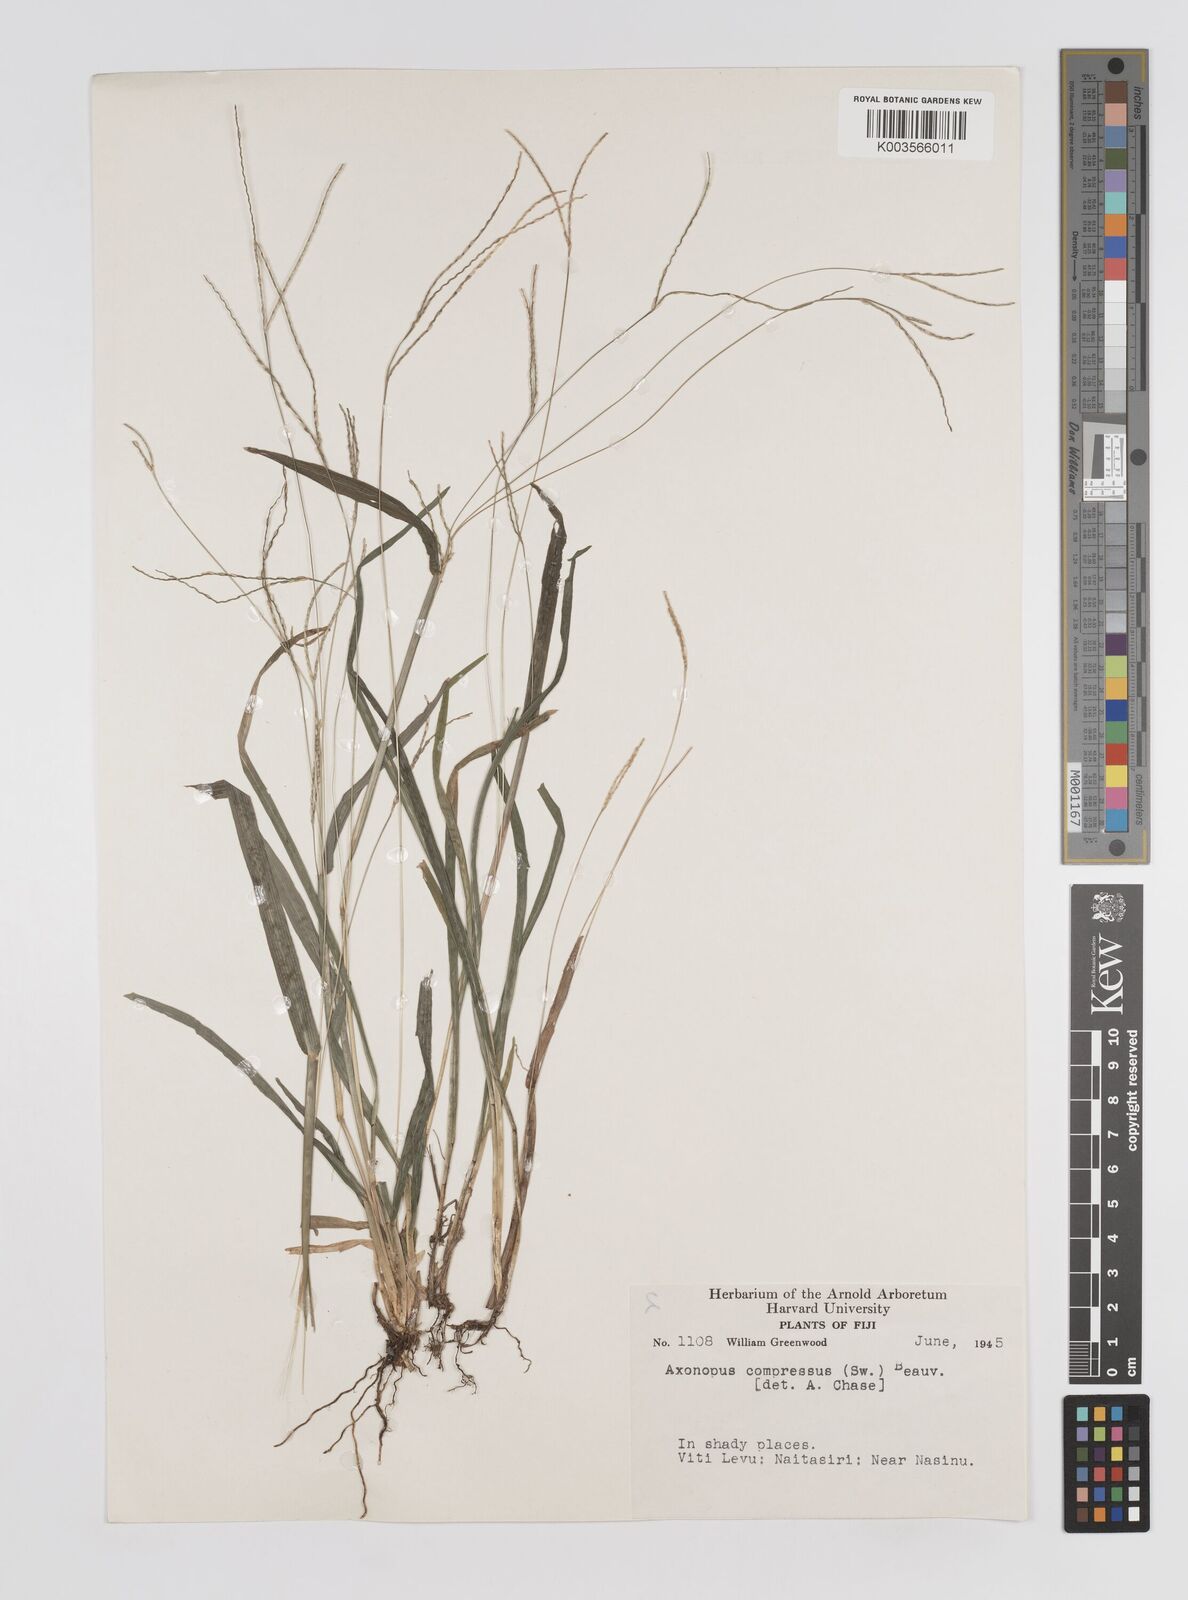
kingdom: Plantae
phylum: Tracheophyta
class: Liliopsida
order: Poales
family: Poaceae
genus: Axonopus
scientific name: Axonopus compressus
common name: American carpet grass
